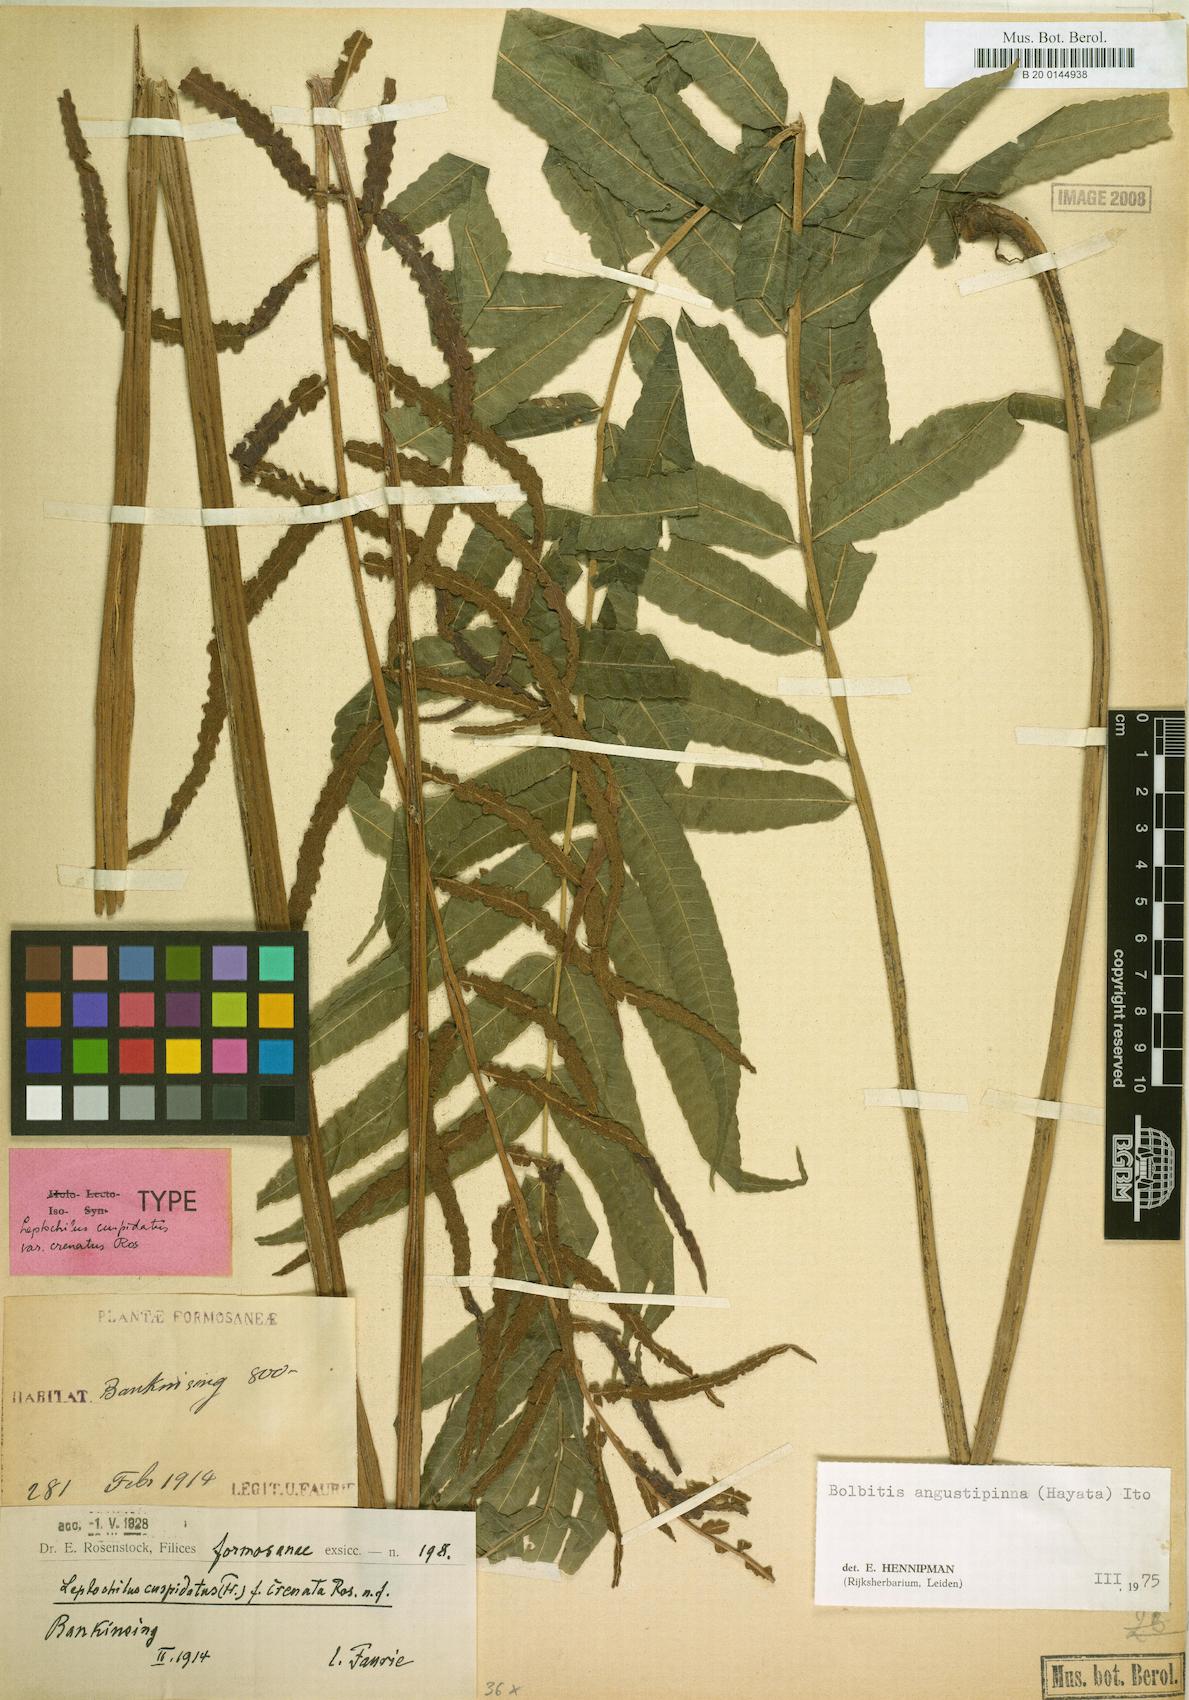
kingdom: Plantae
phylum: Tracheophyta
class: Polypodiopsida
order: Polypodiales
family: Dryopteridaceae
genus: Bolbitis
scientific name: Bolbitis angustipinna
